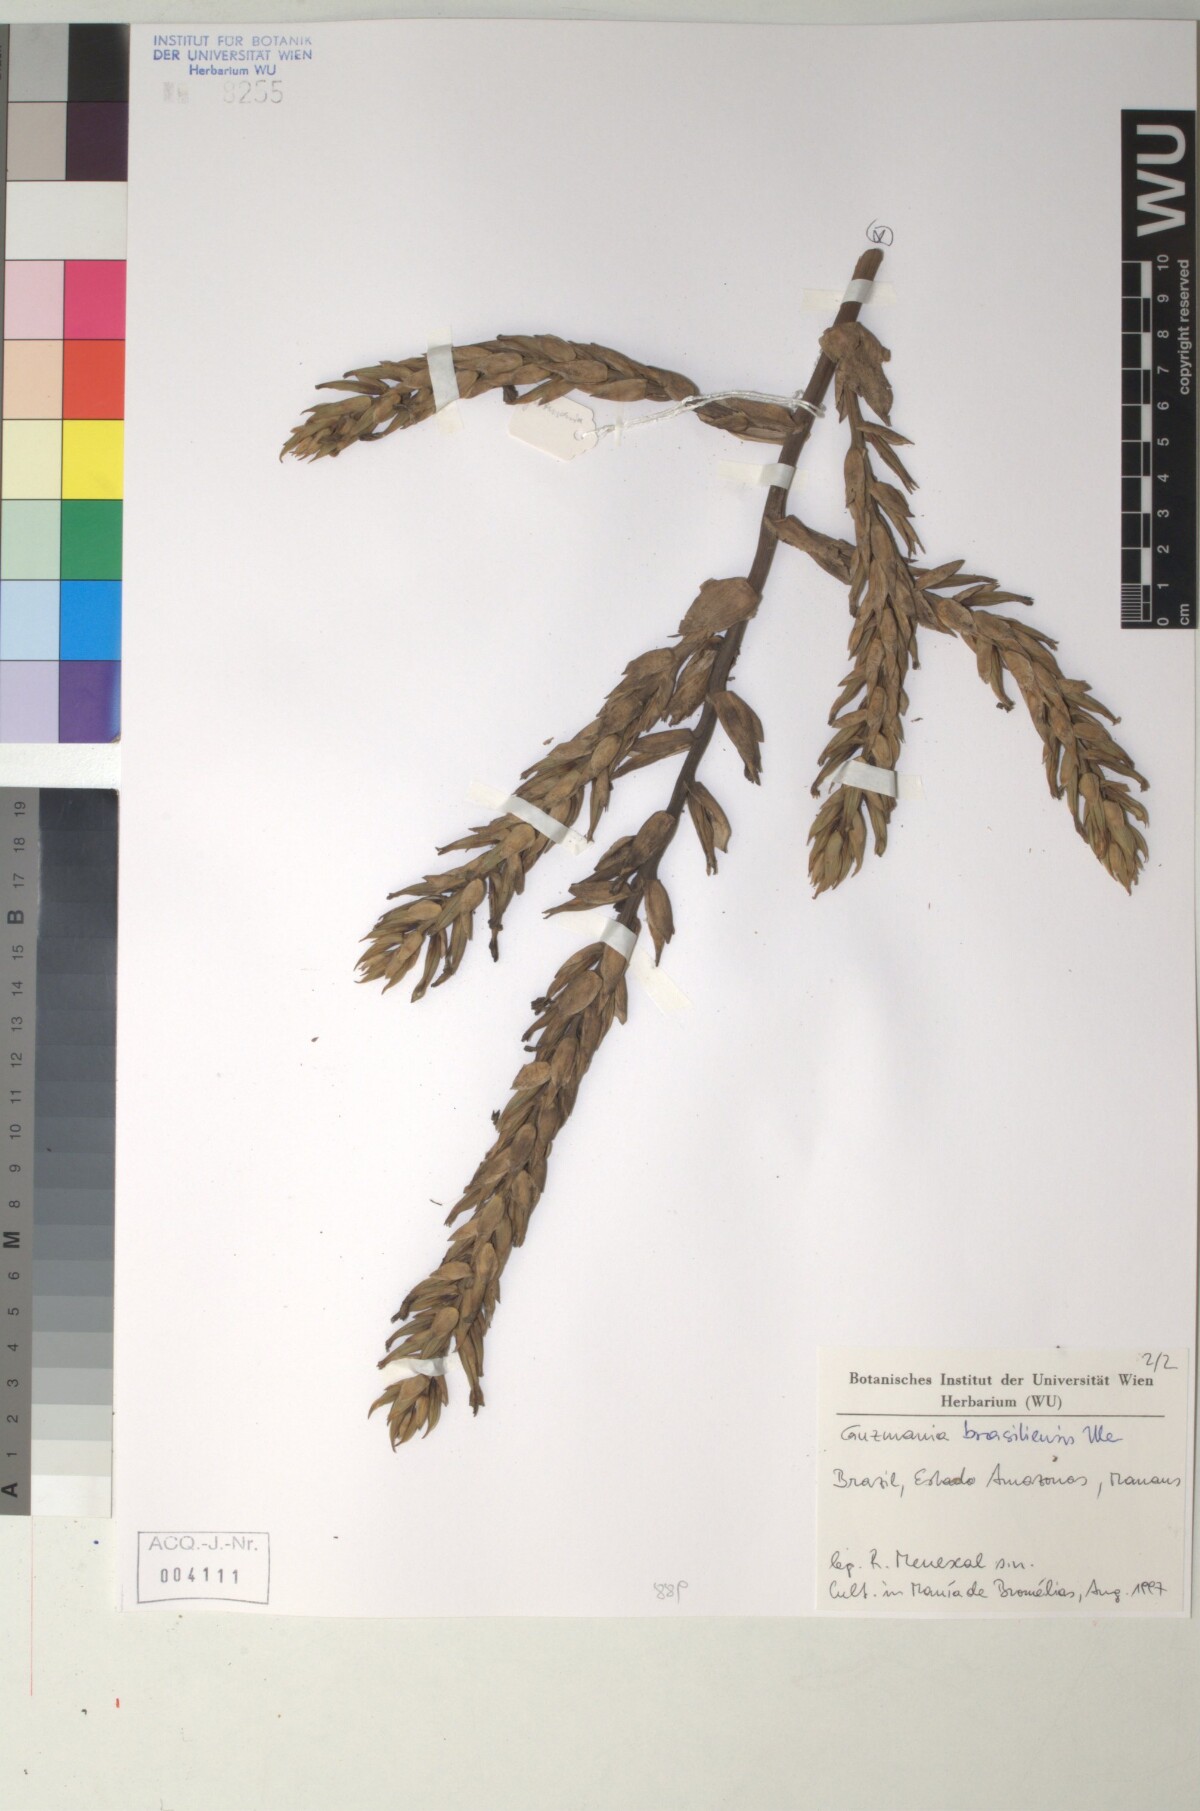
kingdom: Plantae
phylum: Tracheophyta
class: Liliopsida
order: Poales
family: Bromeliaceae
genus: Guzmania
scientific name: Guzmania brasiliensis
